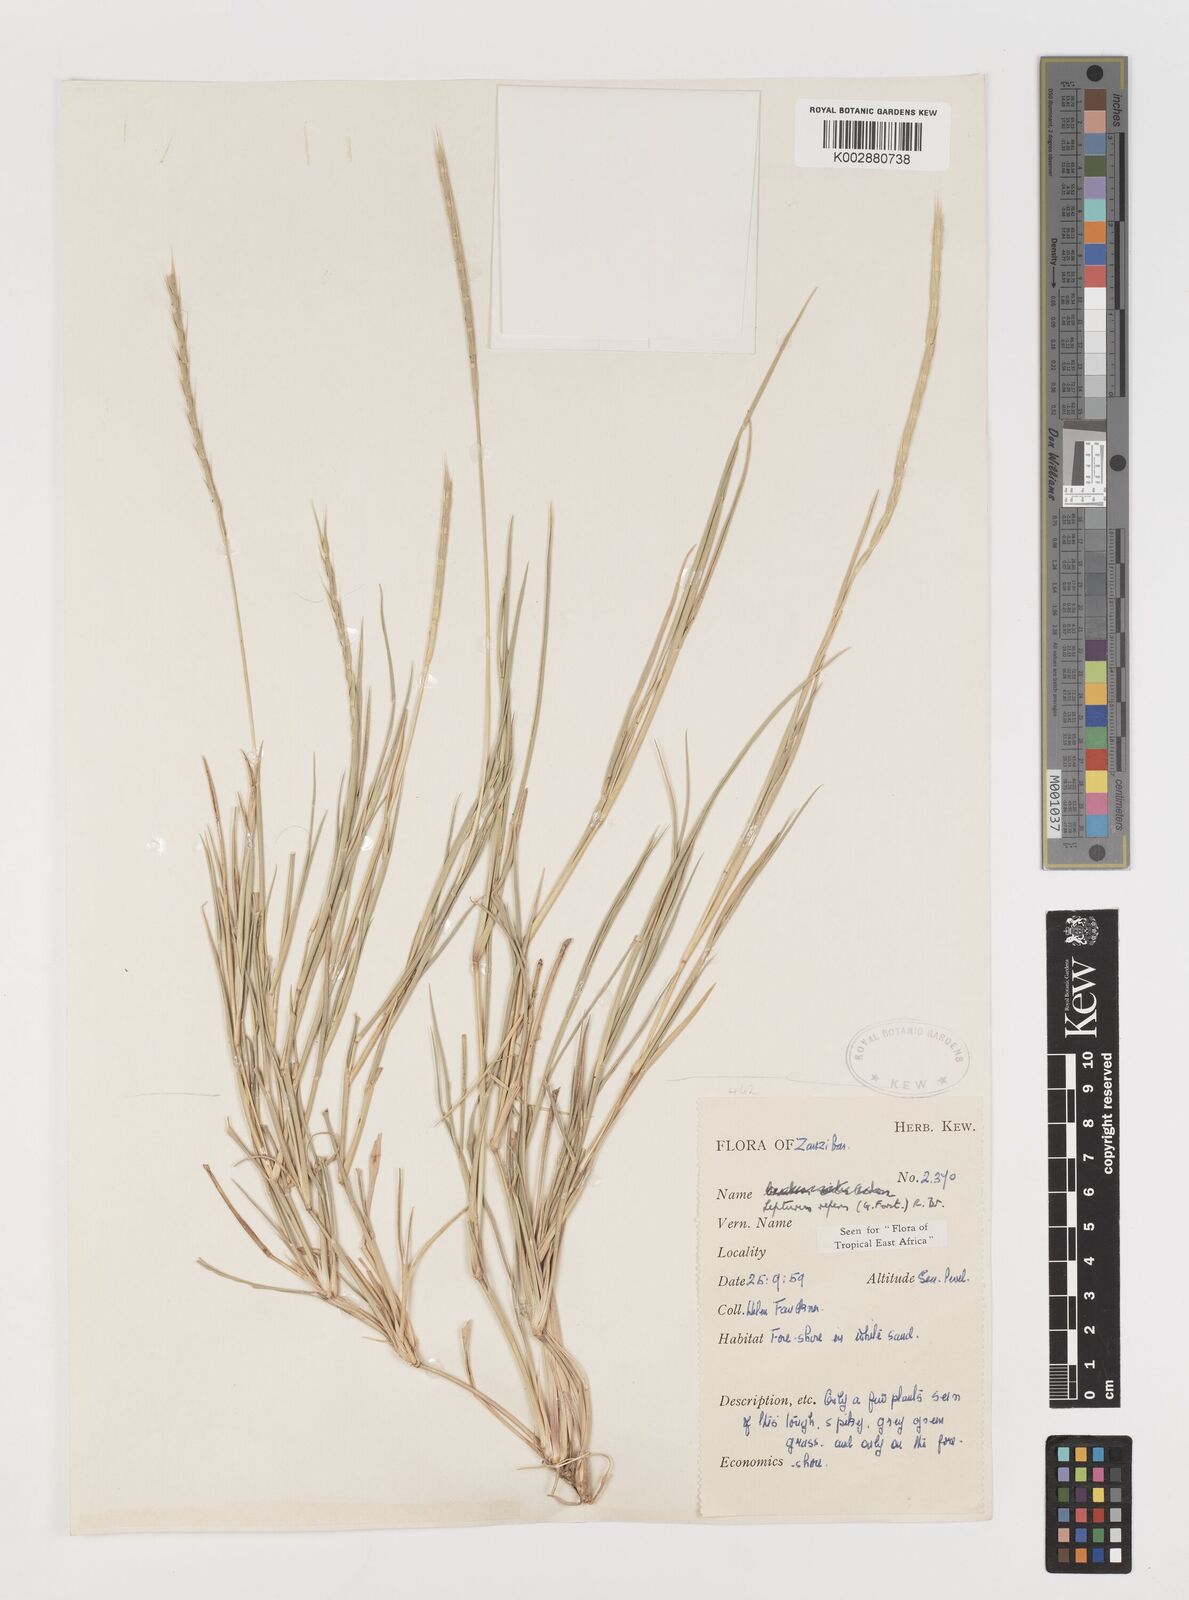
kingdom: Plantae
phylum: Tracheophyta
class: Liliopsida
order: Poales
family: Poaceae
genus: Lepturus
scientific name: Lepturus repens
